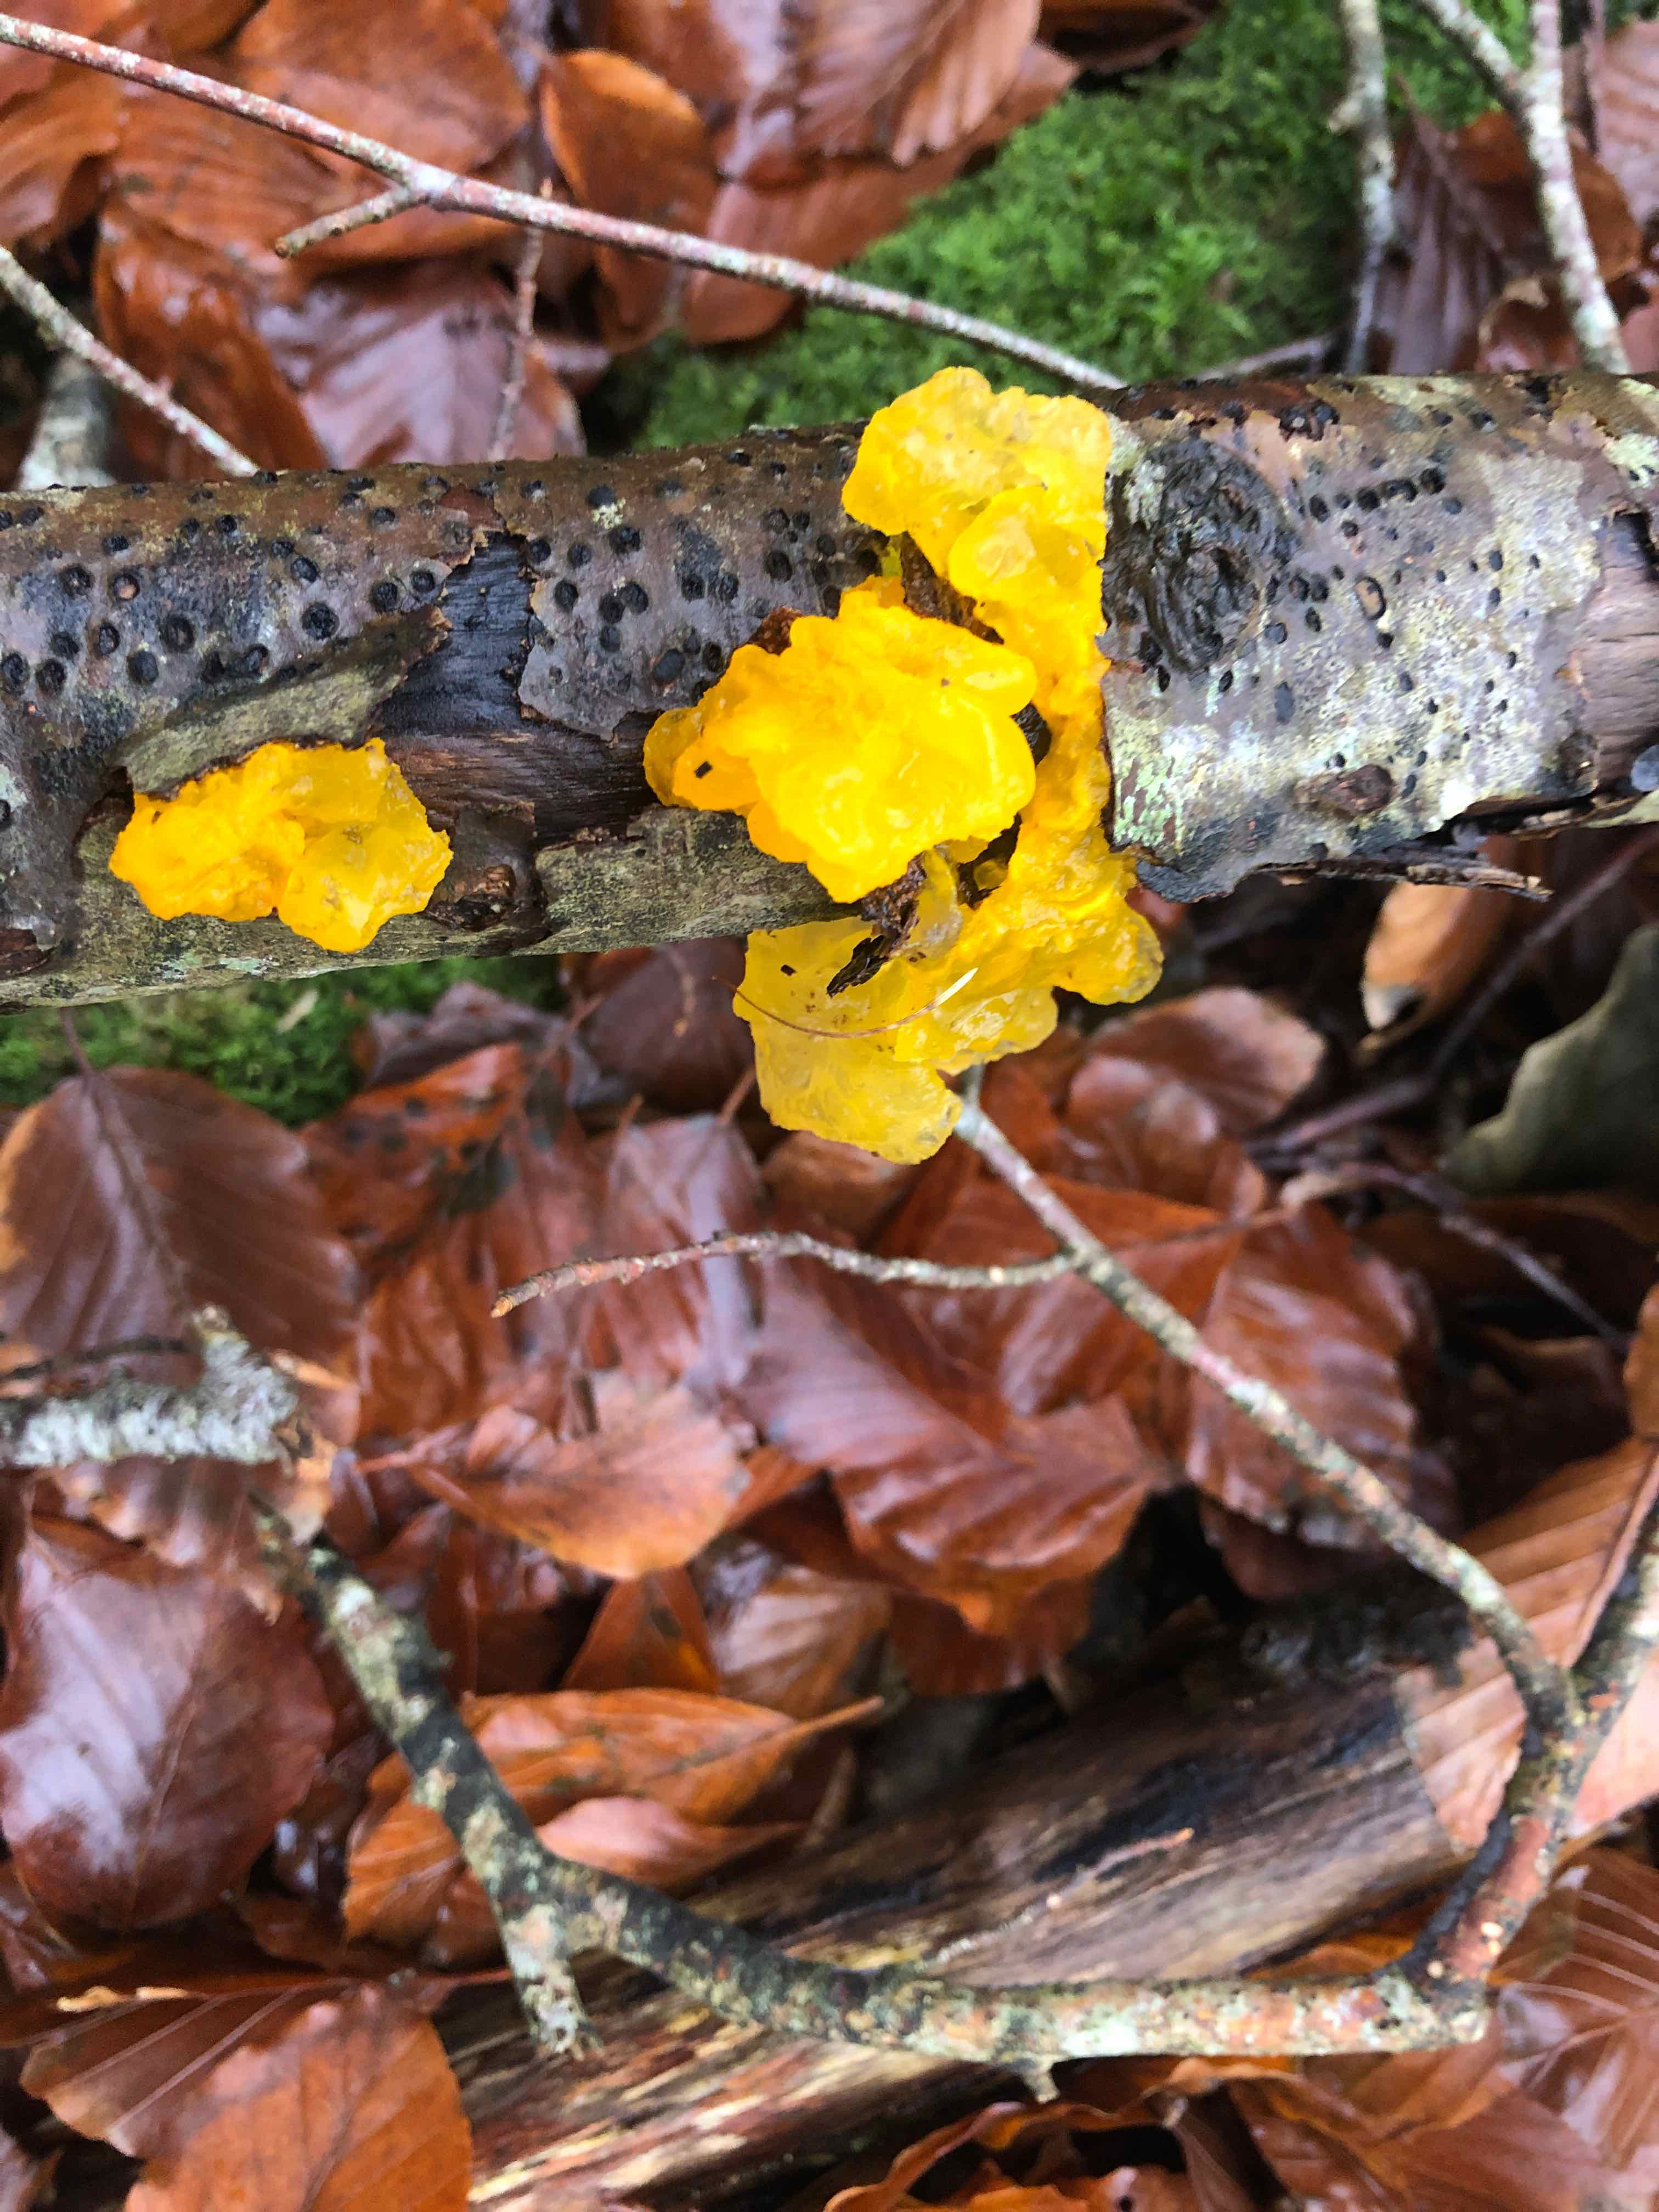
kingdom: Fungi
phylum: Basidiomycota
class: Tremellomycetes
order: Tremellales
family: Tremellaceae
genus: Tremella
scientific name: Tremella mesenterica
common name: gul bævresvamp
